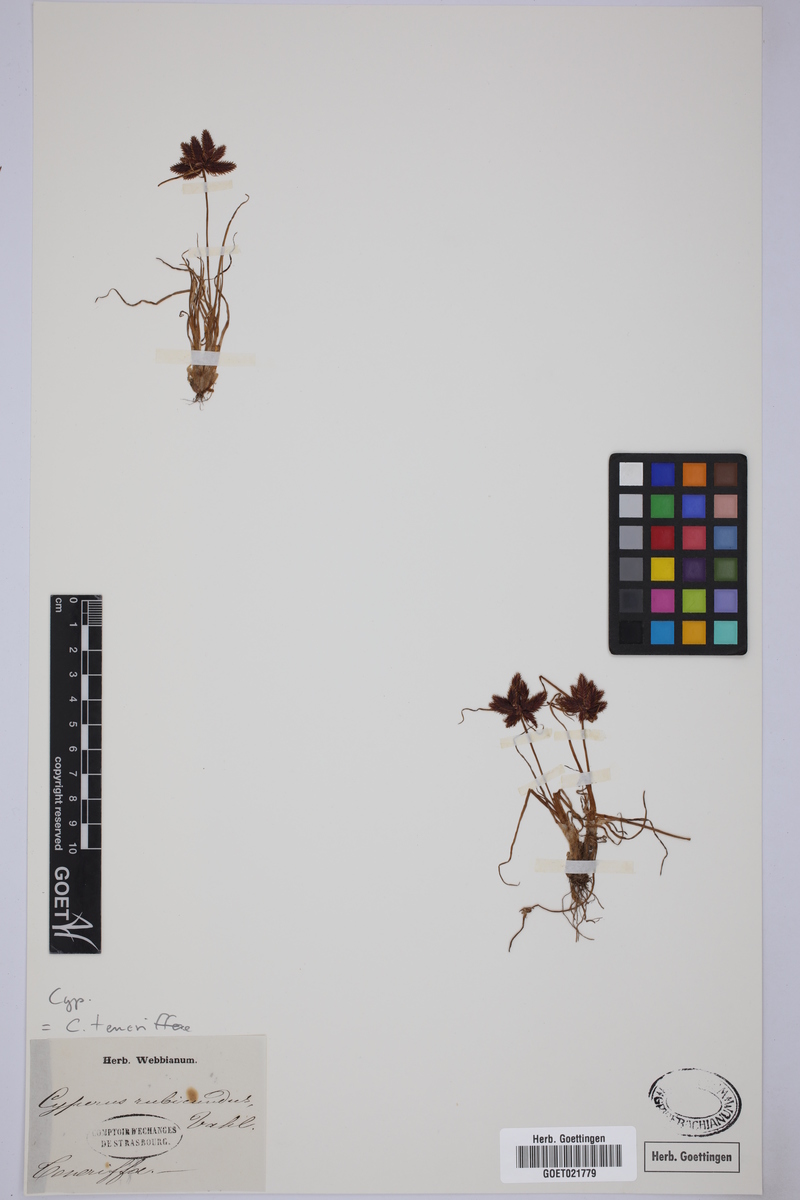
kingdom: Plantae
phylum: Tracheophyta
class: Liliopsida
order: Poales
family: Cyperaceae
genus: Cyperus
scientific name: Cyperus rubicundus
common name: Coco-grass
